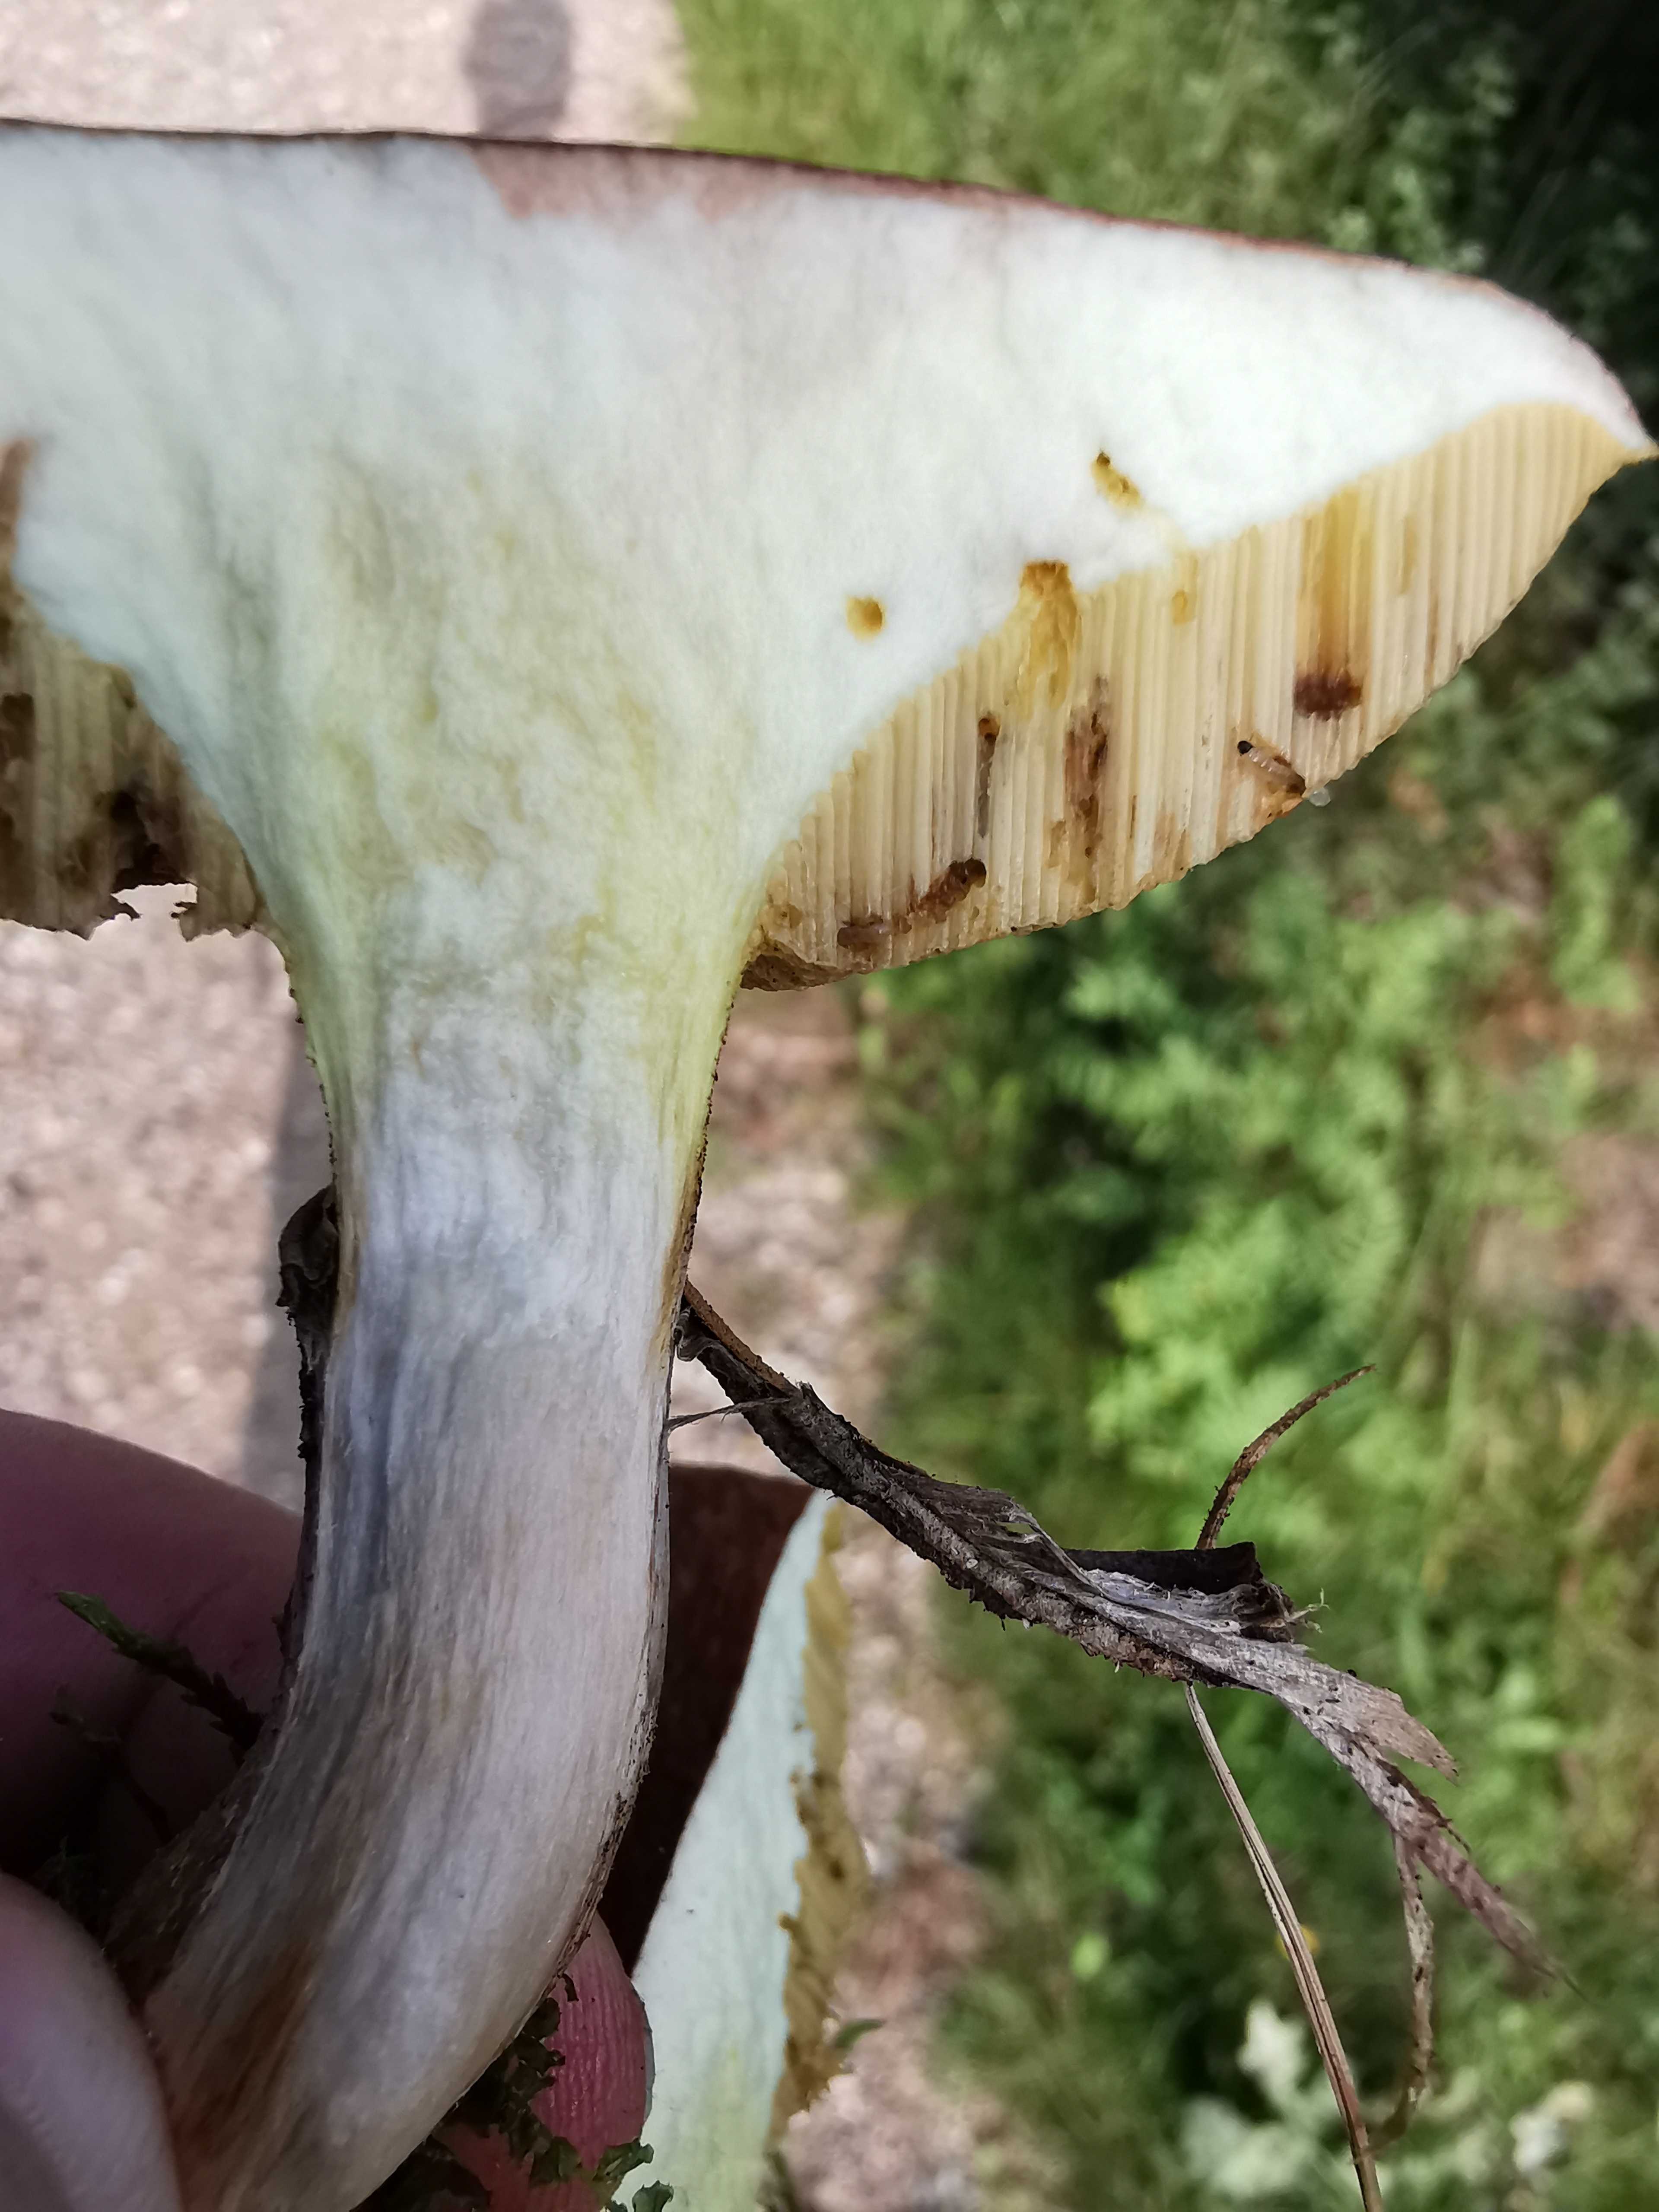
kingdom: Fungi
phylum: Basidiomycota
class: Agaricomycetes
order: Boletales
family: Suillaceae
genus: Suillus
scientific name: Suillus luteus
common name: brungul slimrørhat
